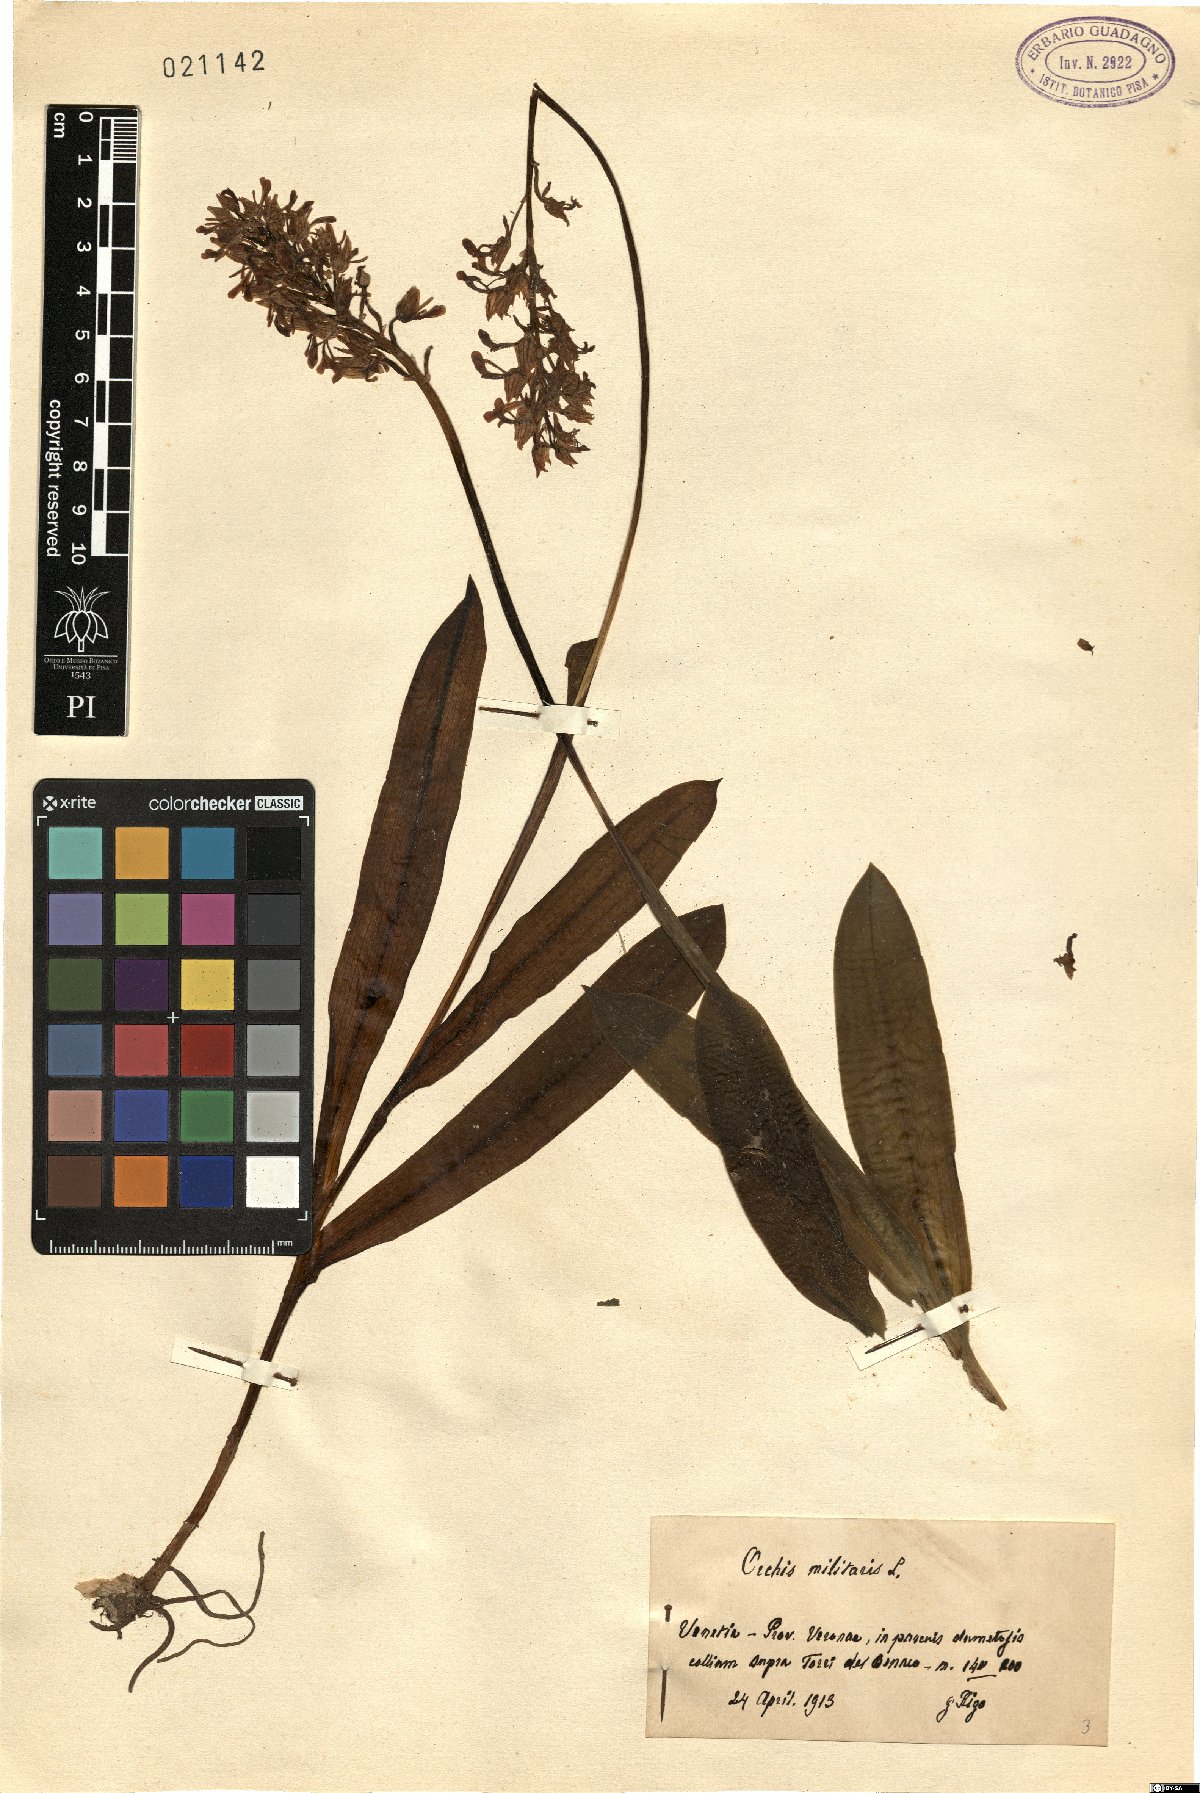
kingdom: Plantae
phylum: Tracheophyta
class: Liliopsida
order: Asparagales
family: Orchidaceae
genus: Orchis
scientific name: Orchis militaris
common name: Military orchid
